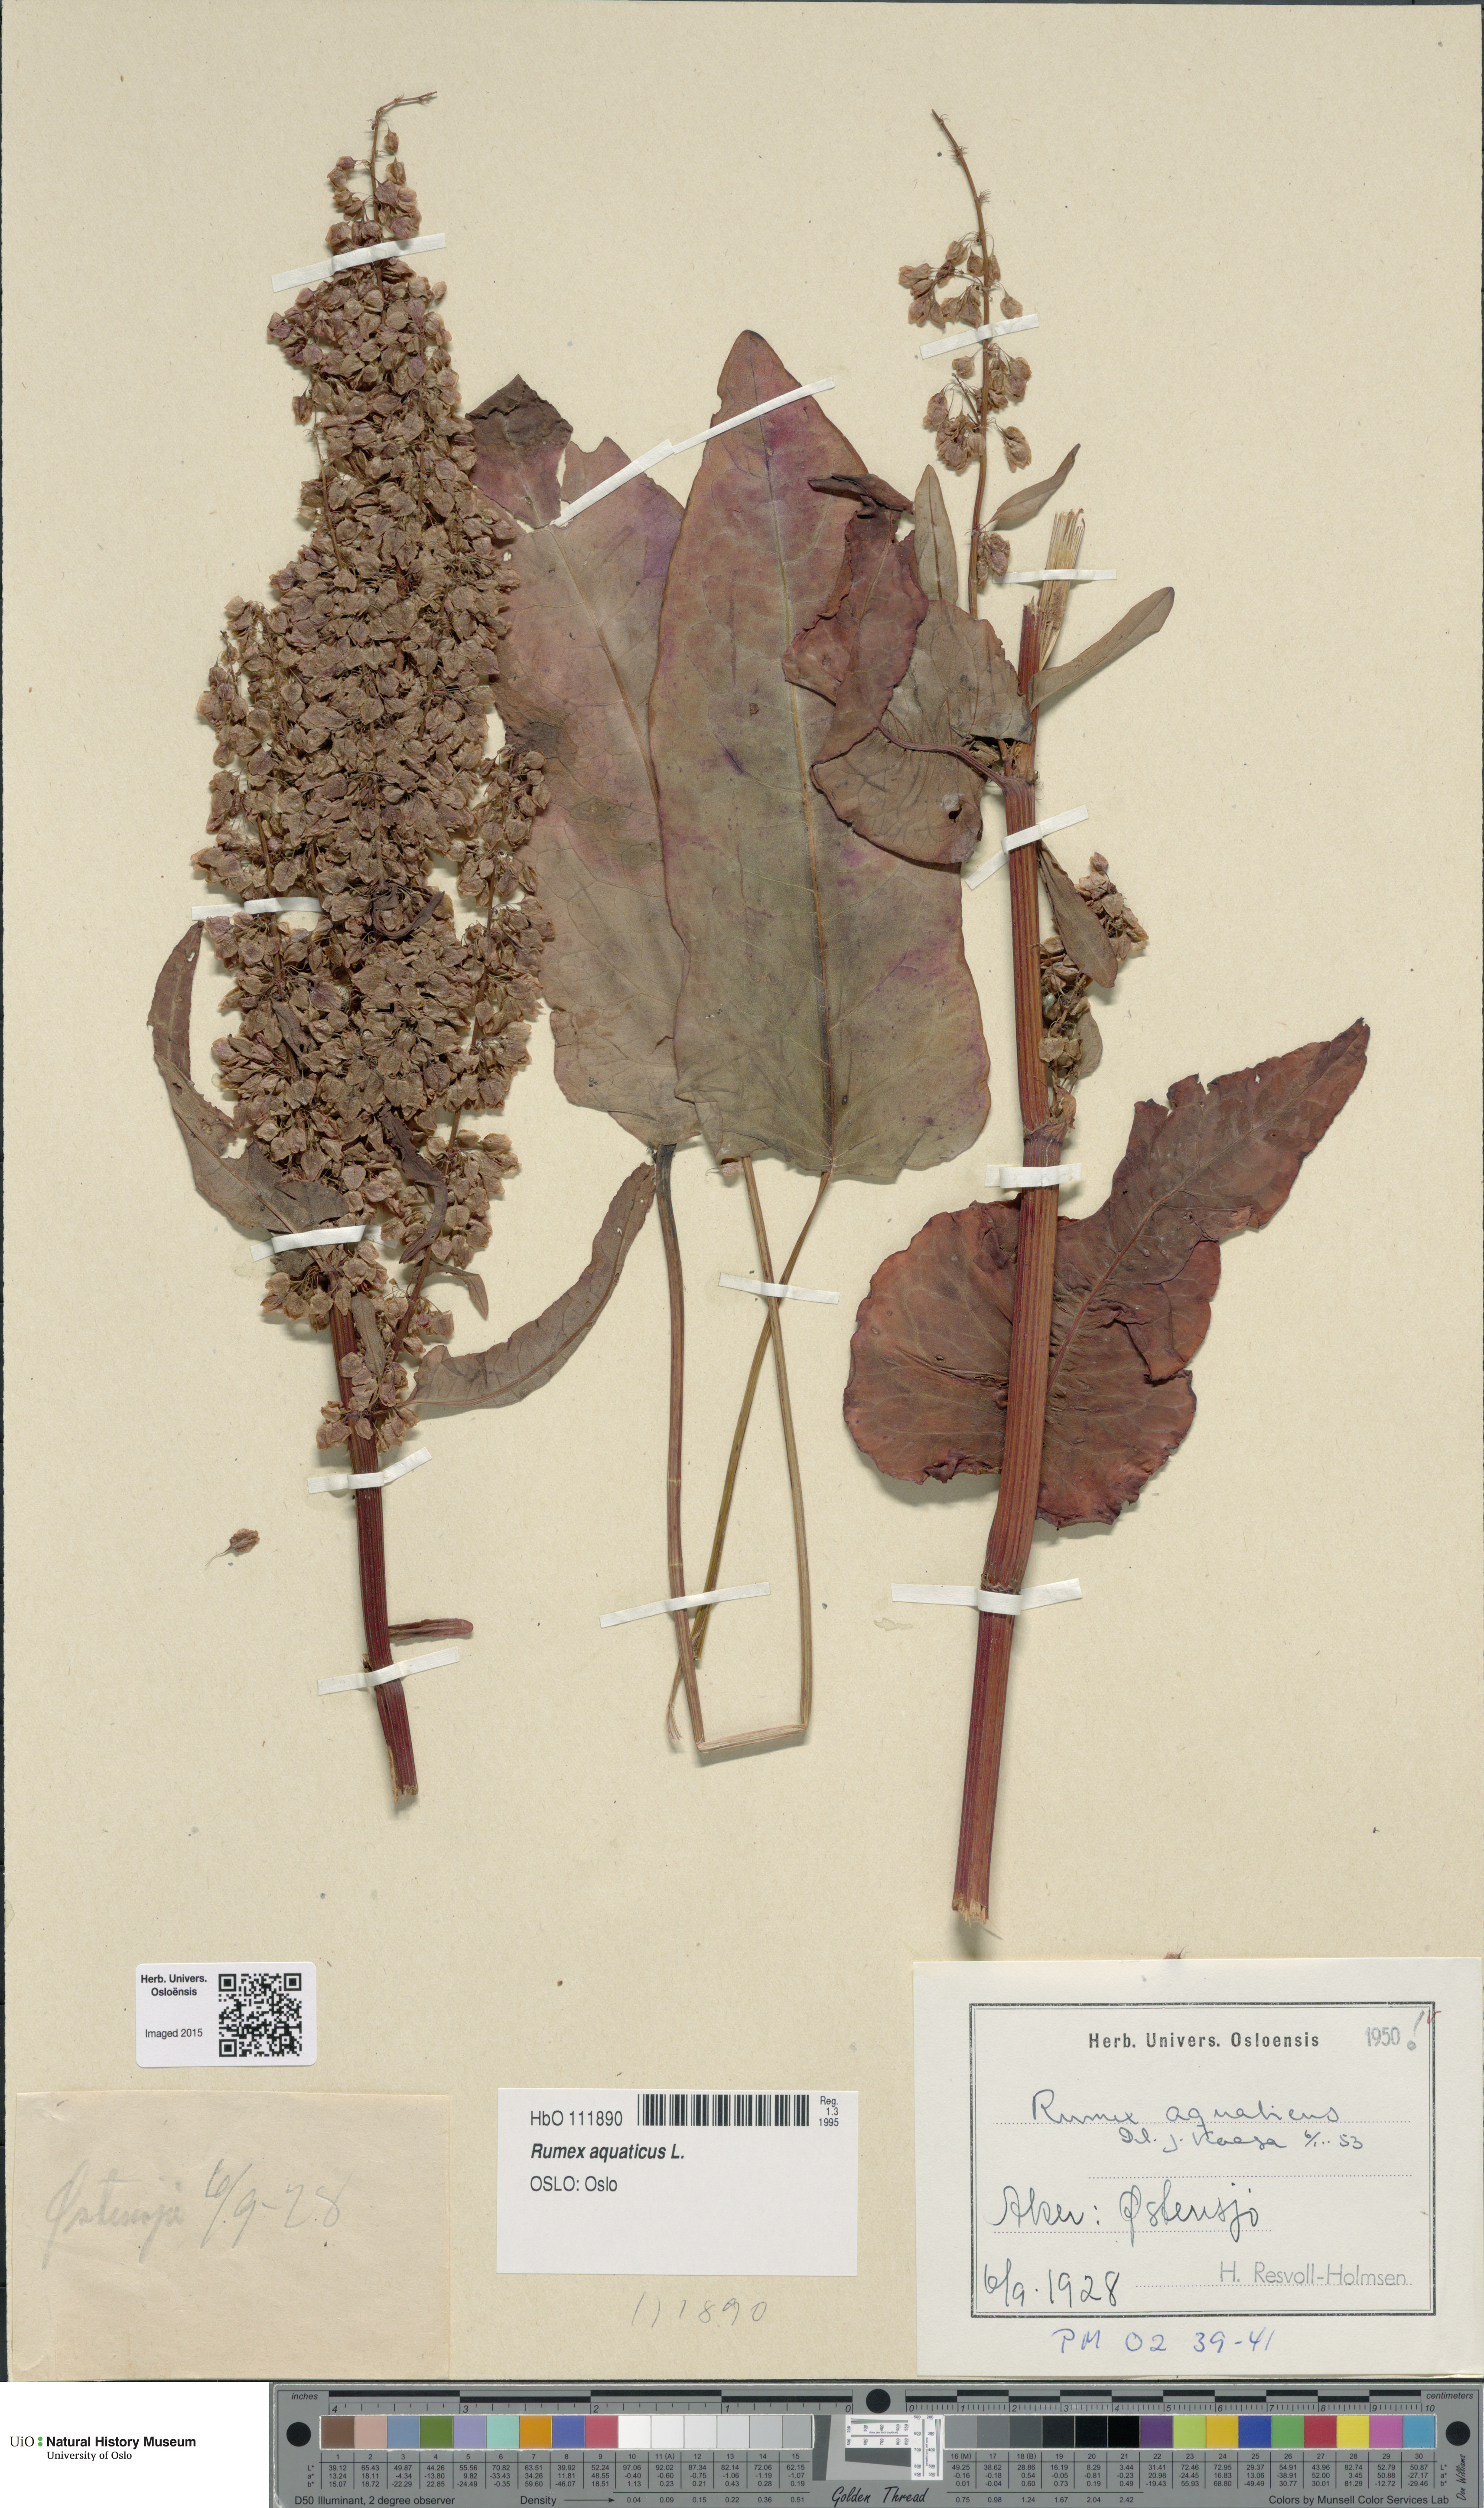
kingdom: Plantae
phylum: Tracheophyta
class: Magnoliopsida
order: Caryophyllales
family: Polygonaceae
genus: Rumex
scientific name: Rumex aquaticus
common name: Scottish dock
